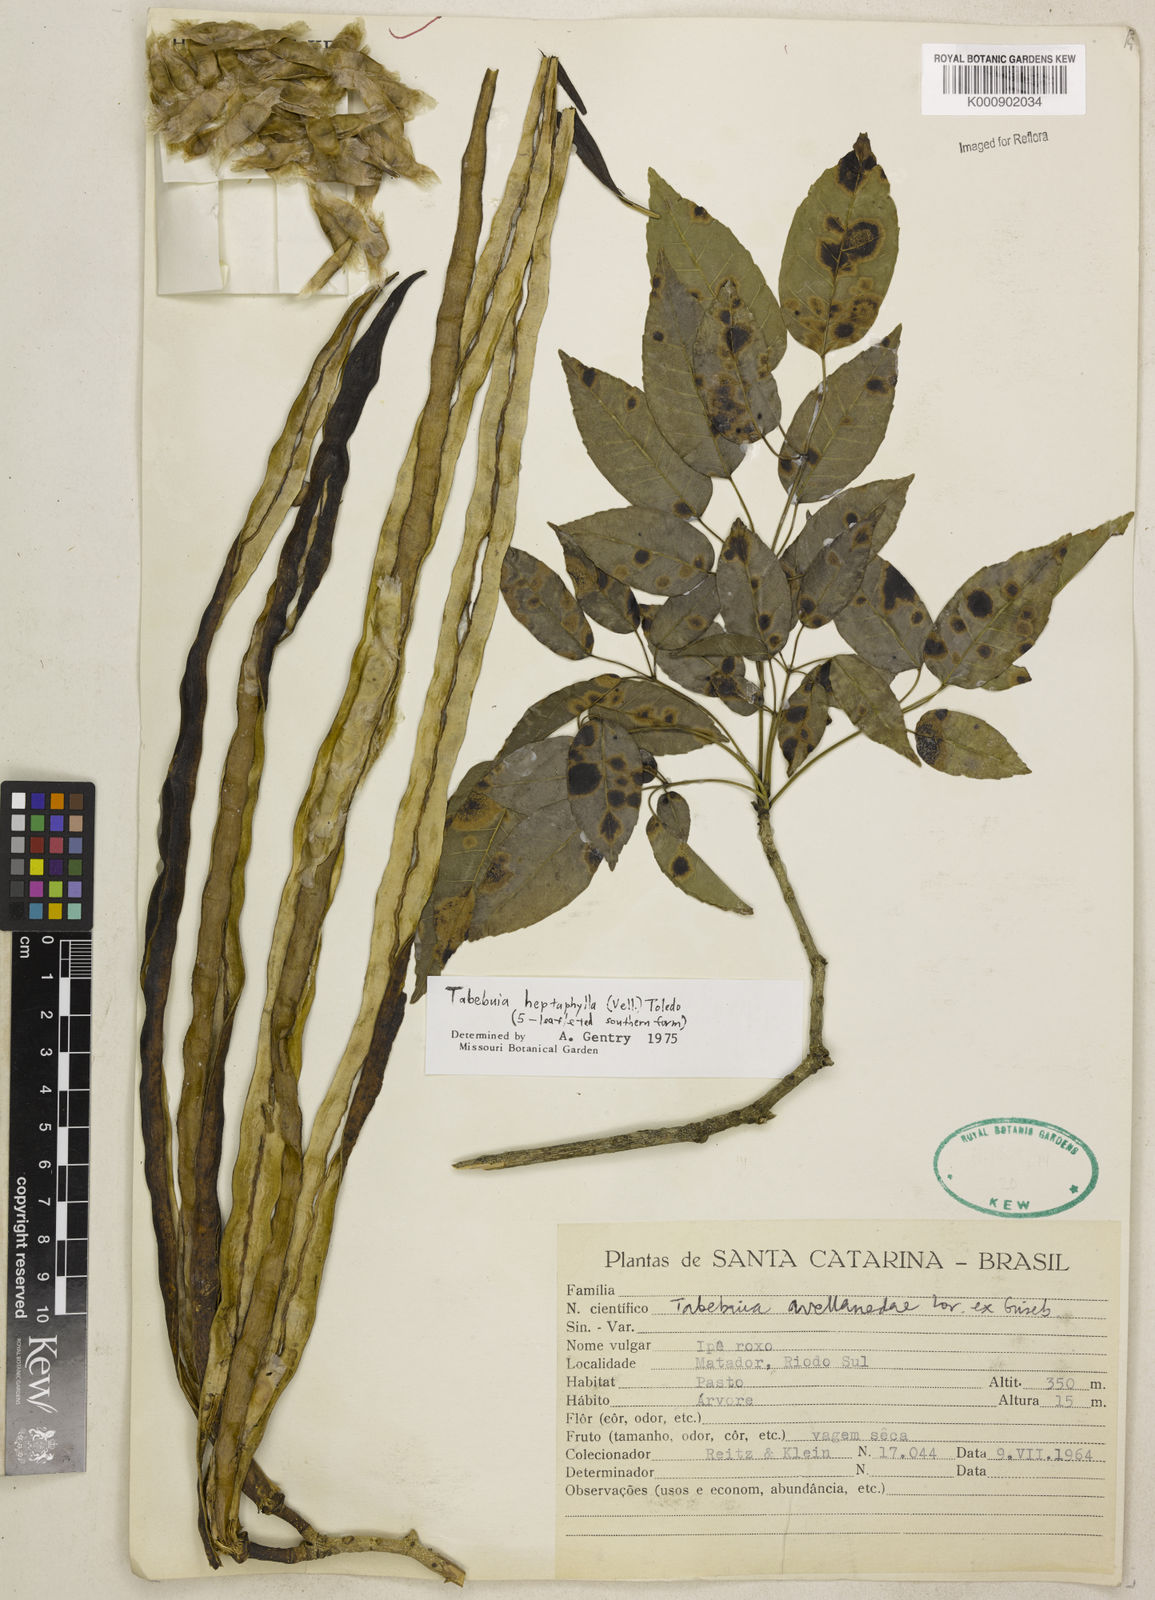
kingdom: Plantae
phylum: Tracheophyta
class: Magnoliopsida
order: Lamiales
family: Bignoniaceae
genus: Handroanthus
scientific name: Handroanthus heptaphyllus
